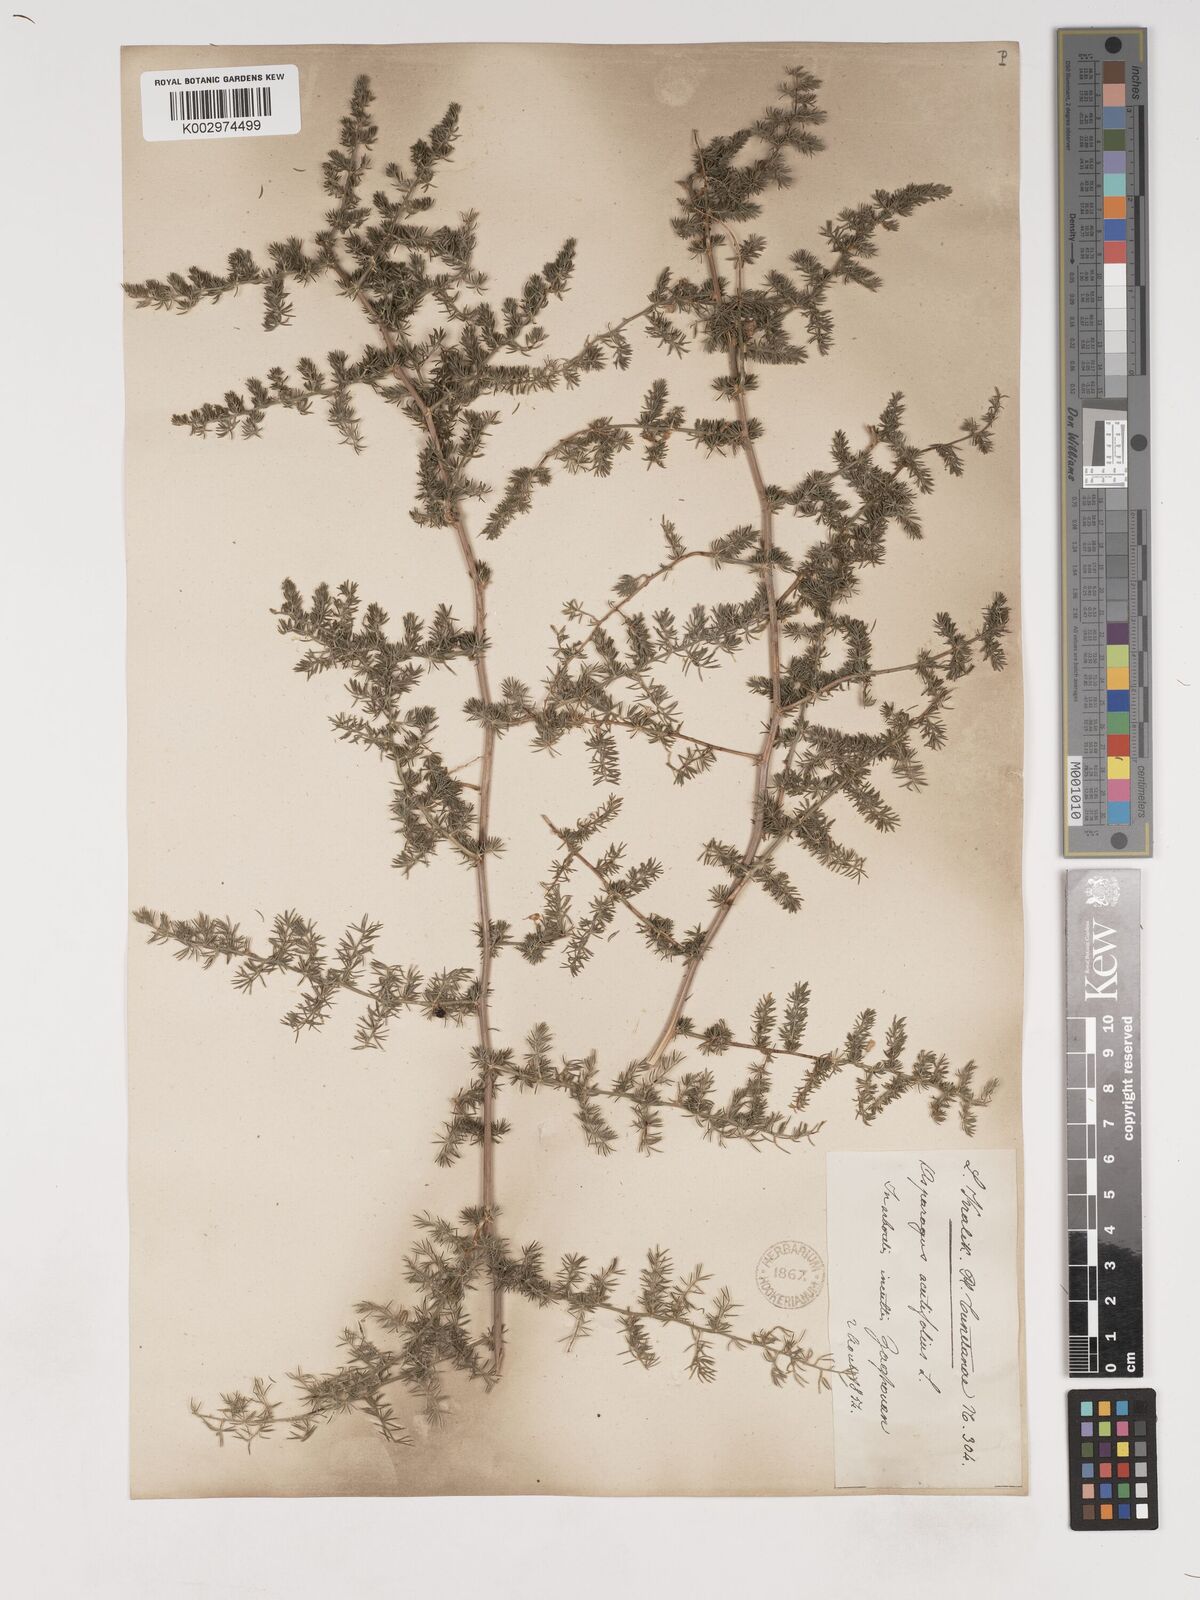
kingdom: Plantae
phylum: Tracheophyta
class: Liliopsida
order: Asparagales
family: Asparagaceae
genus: Asparagus
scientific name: Asparagus acutifolius
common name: Wild asparagus
